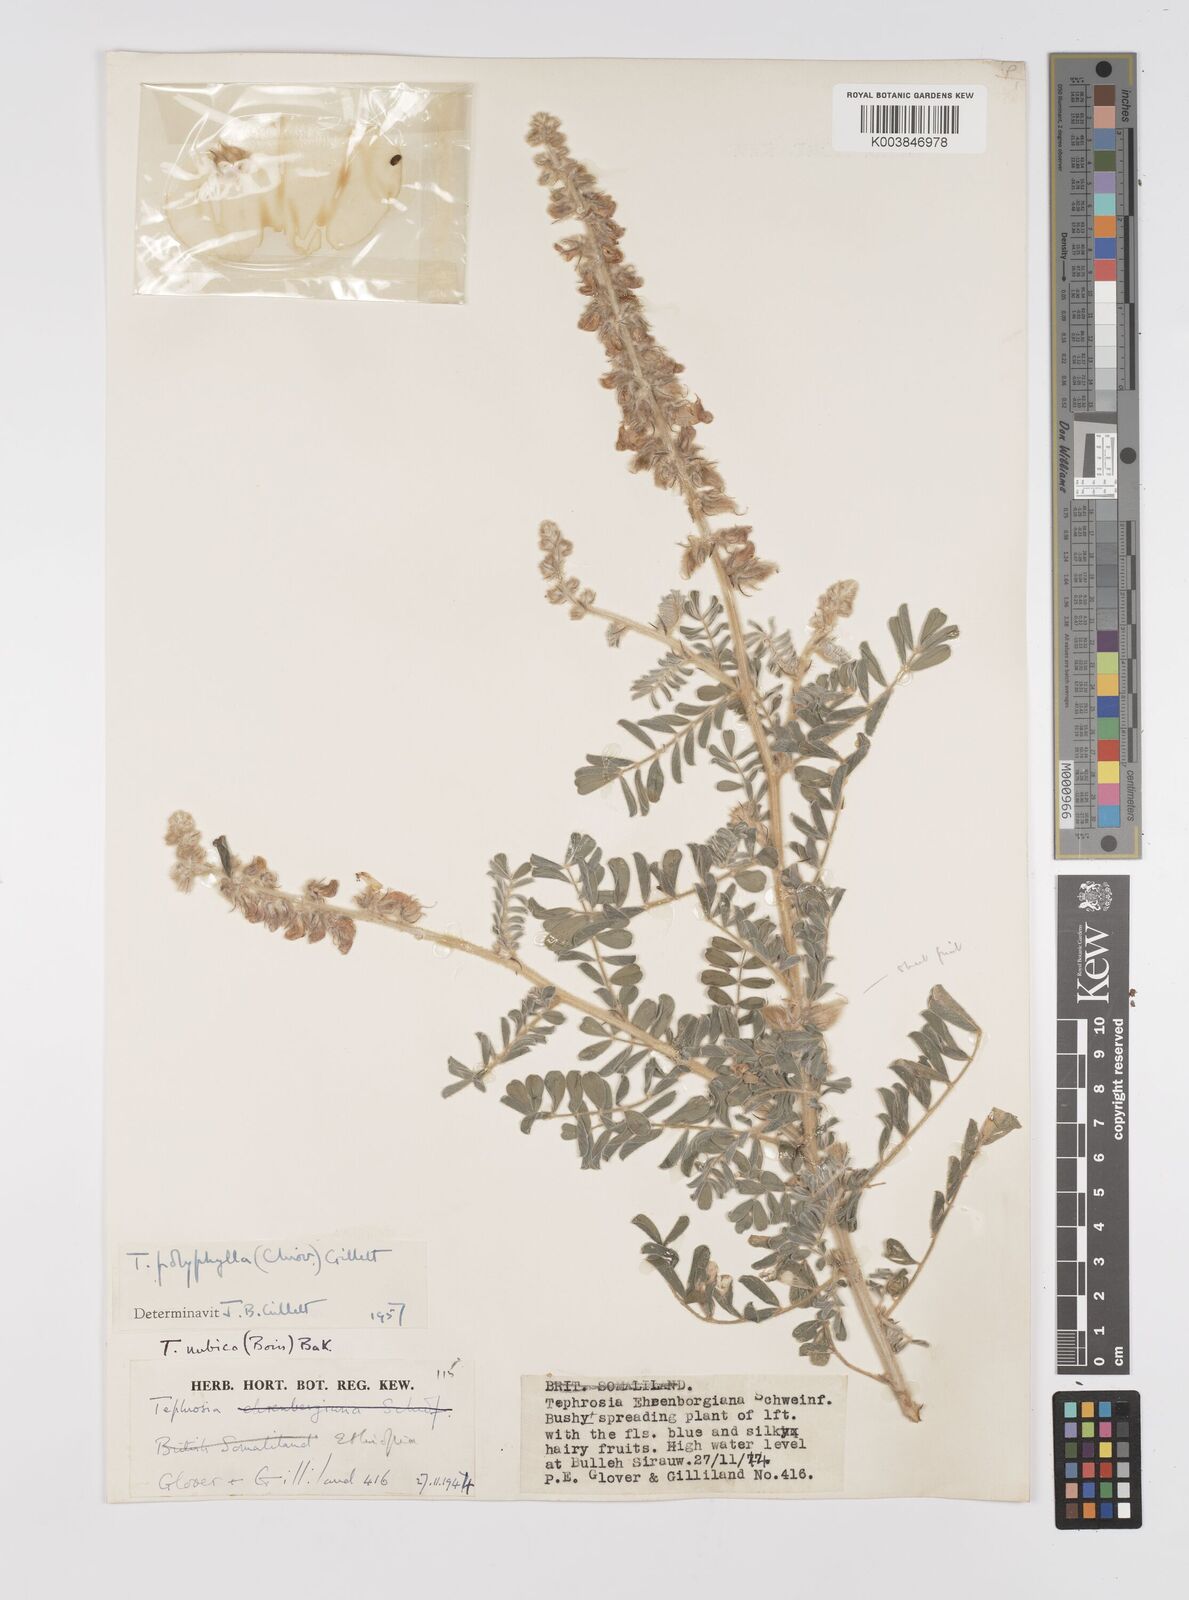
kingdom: Plantae
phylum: Tracheophyta
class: Magnoliopsida
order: Fabales
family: Fabaceae
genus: Tephrosia
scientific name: Tephrosia polyphylla
